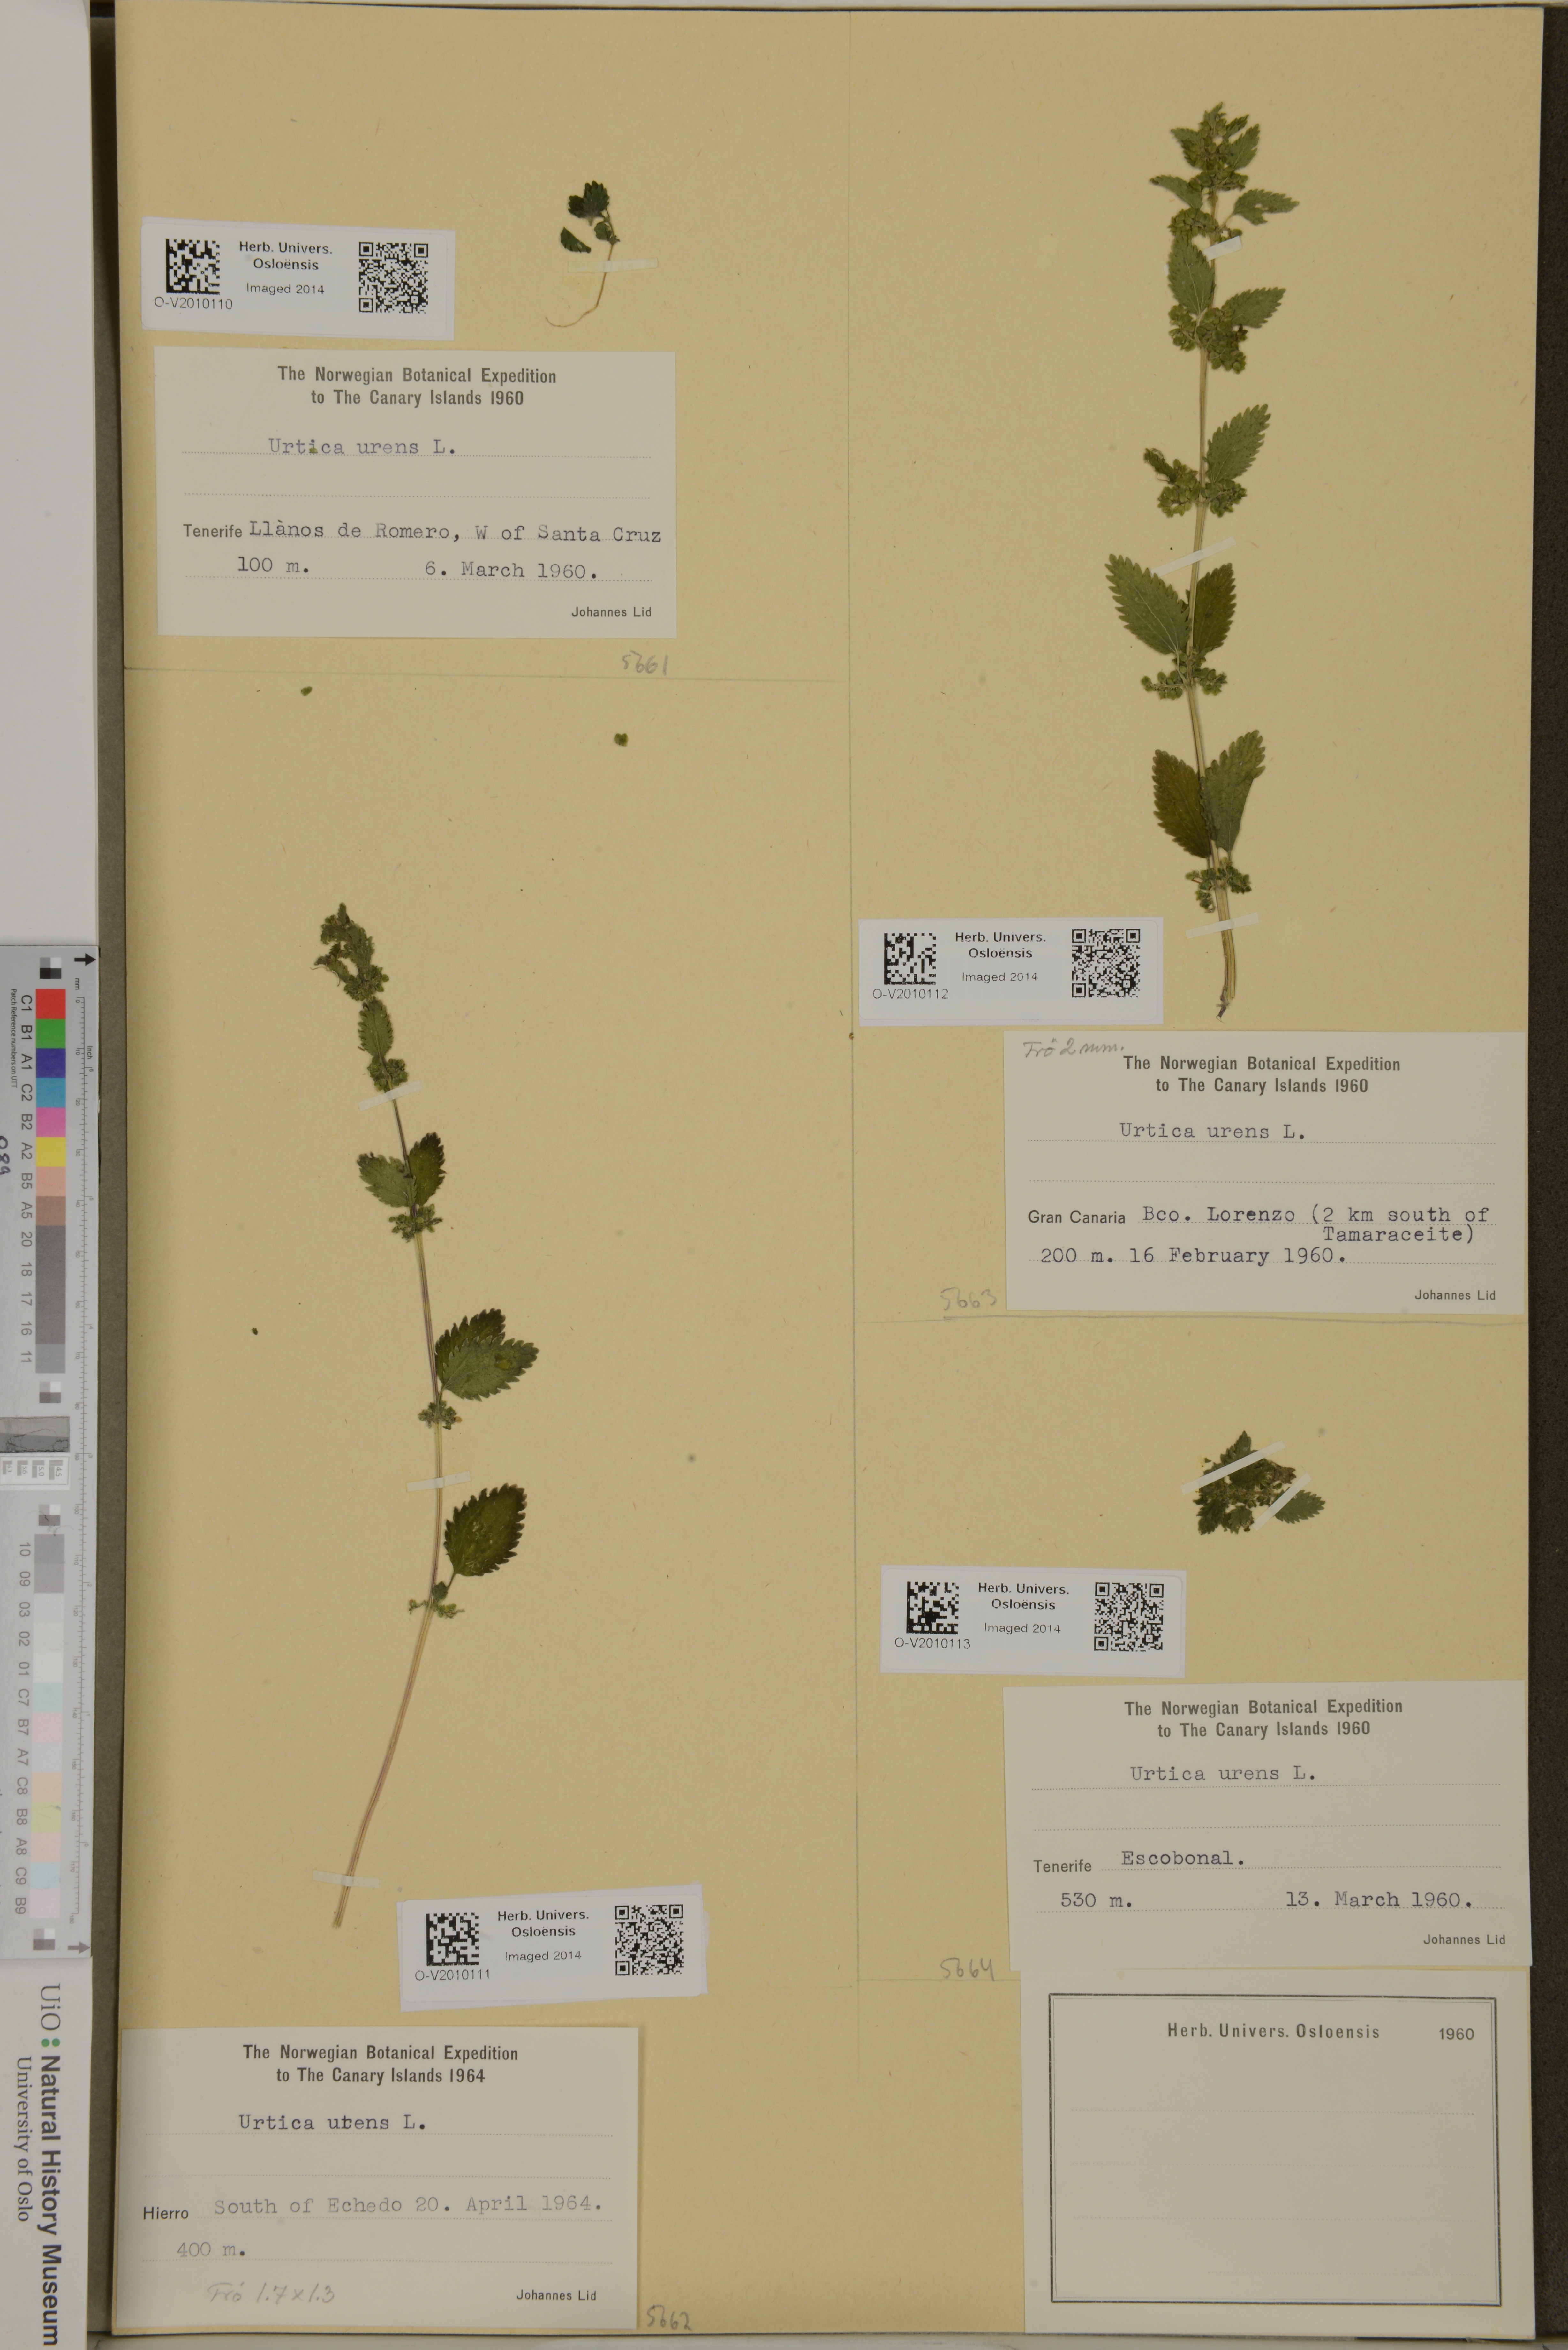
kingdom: Plantae
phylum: Tracheophyta
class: Magnoliopsida
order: Rosales
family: Urticaceae
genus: Urtica
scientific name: Urtica urens
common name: Dwarf nettle
